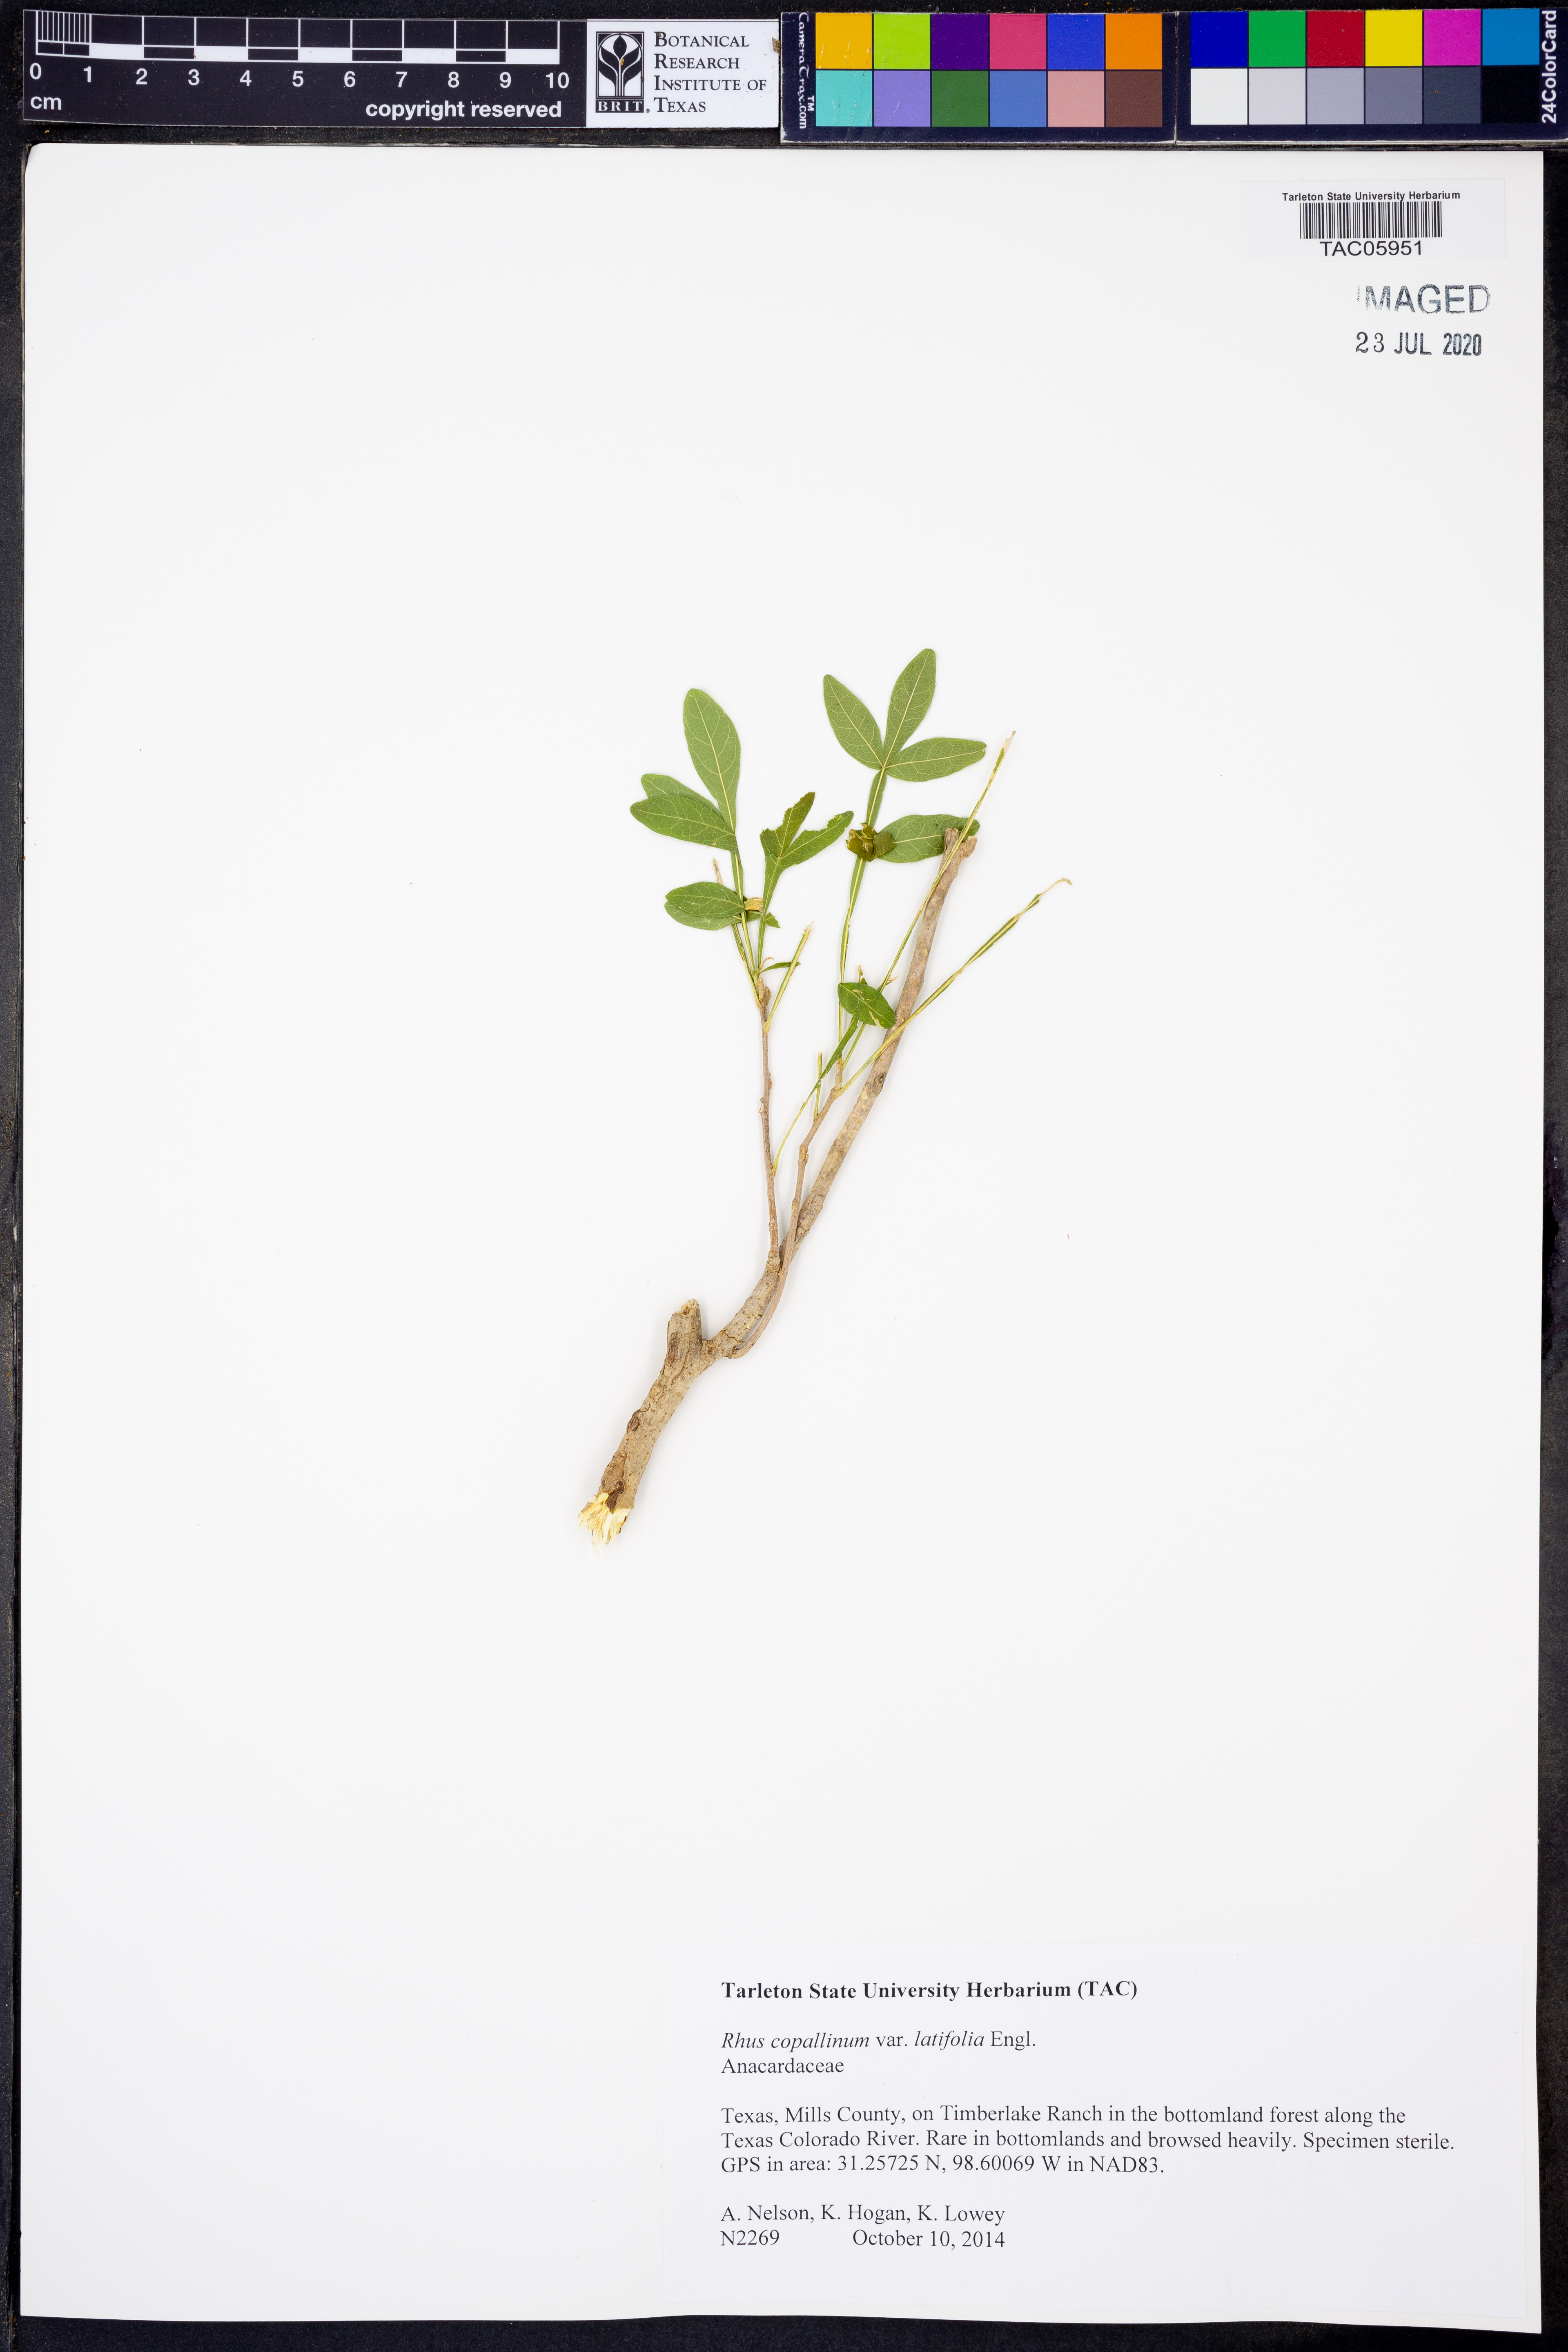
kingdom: Plantae
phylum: Tracheophyta
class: Magnoliopsida
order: Sapindales
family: Anacardiaceae
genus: Rhus
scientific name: Rhus copallina
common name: Shining sumac
